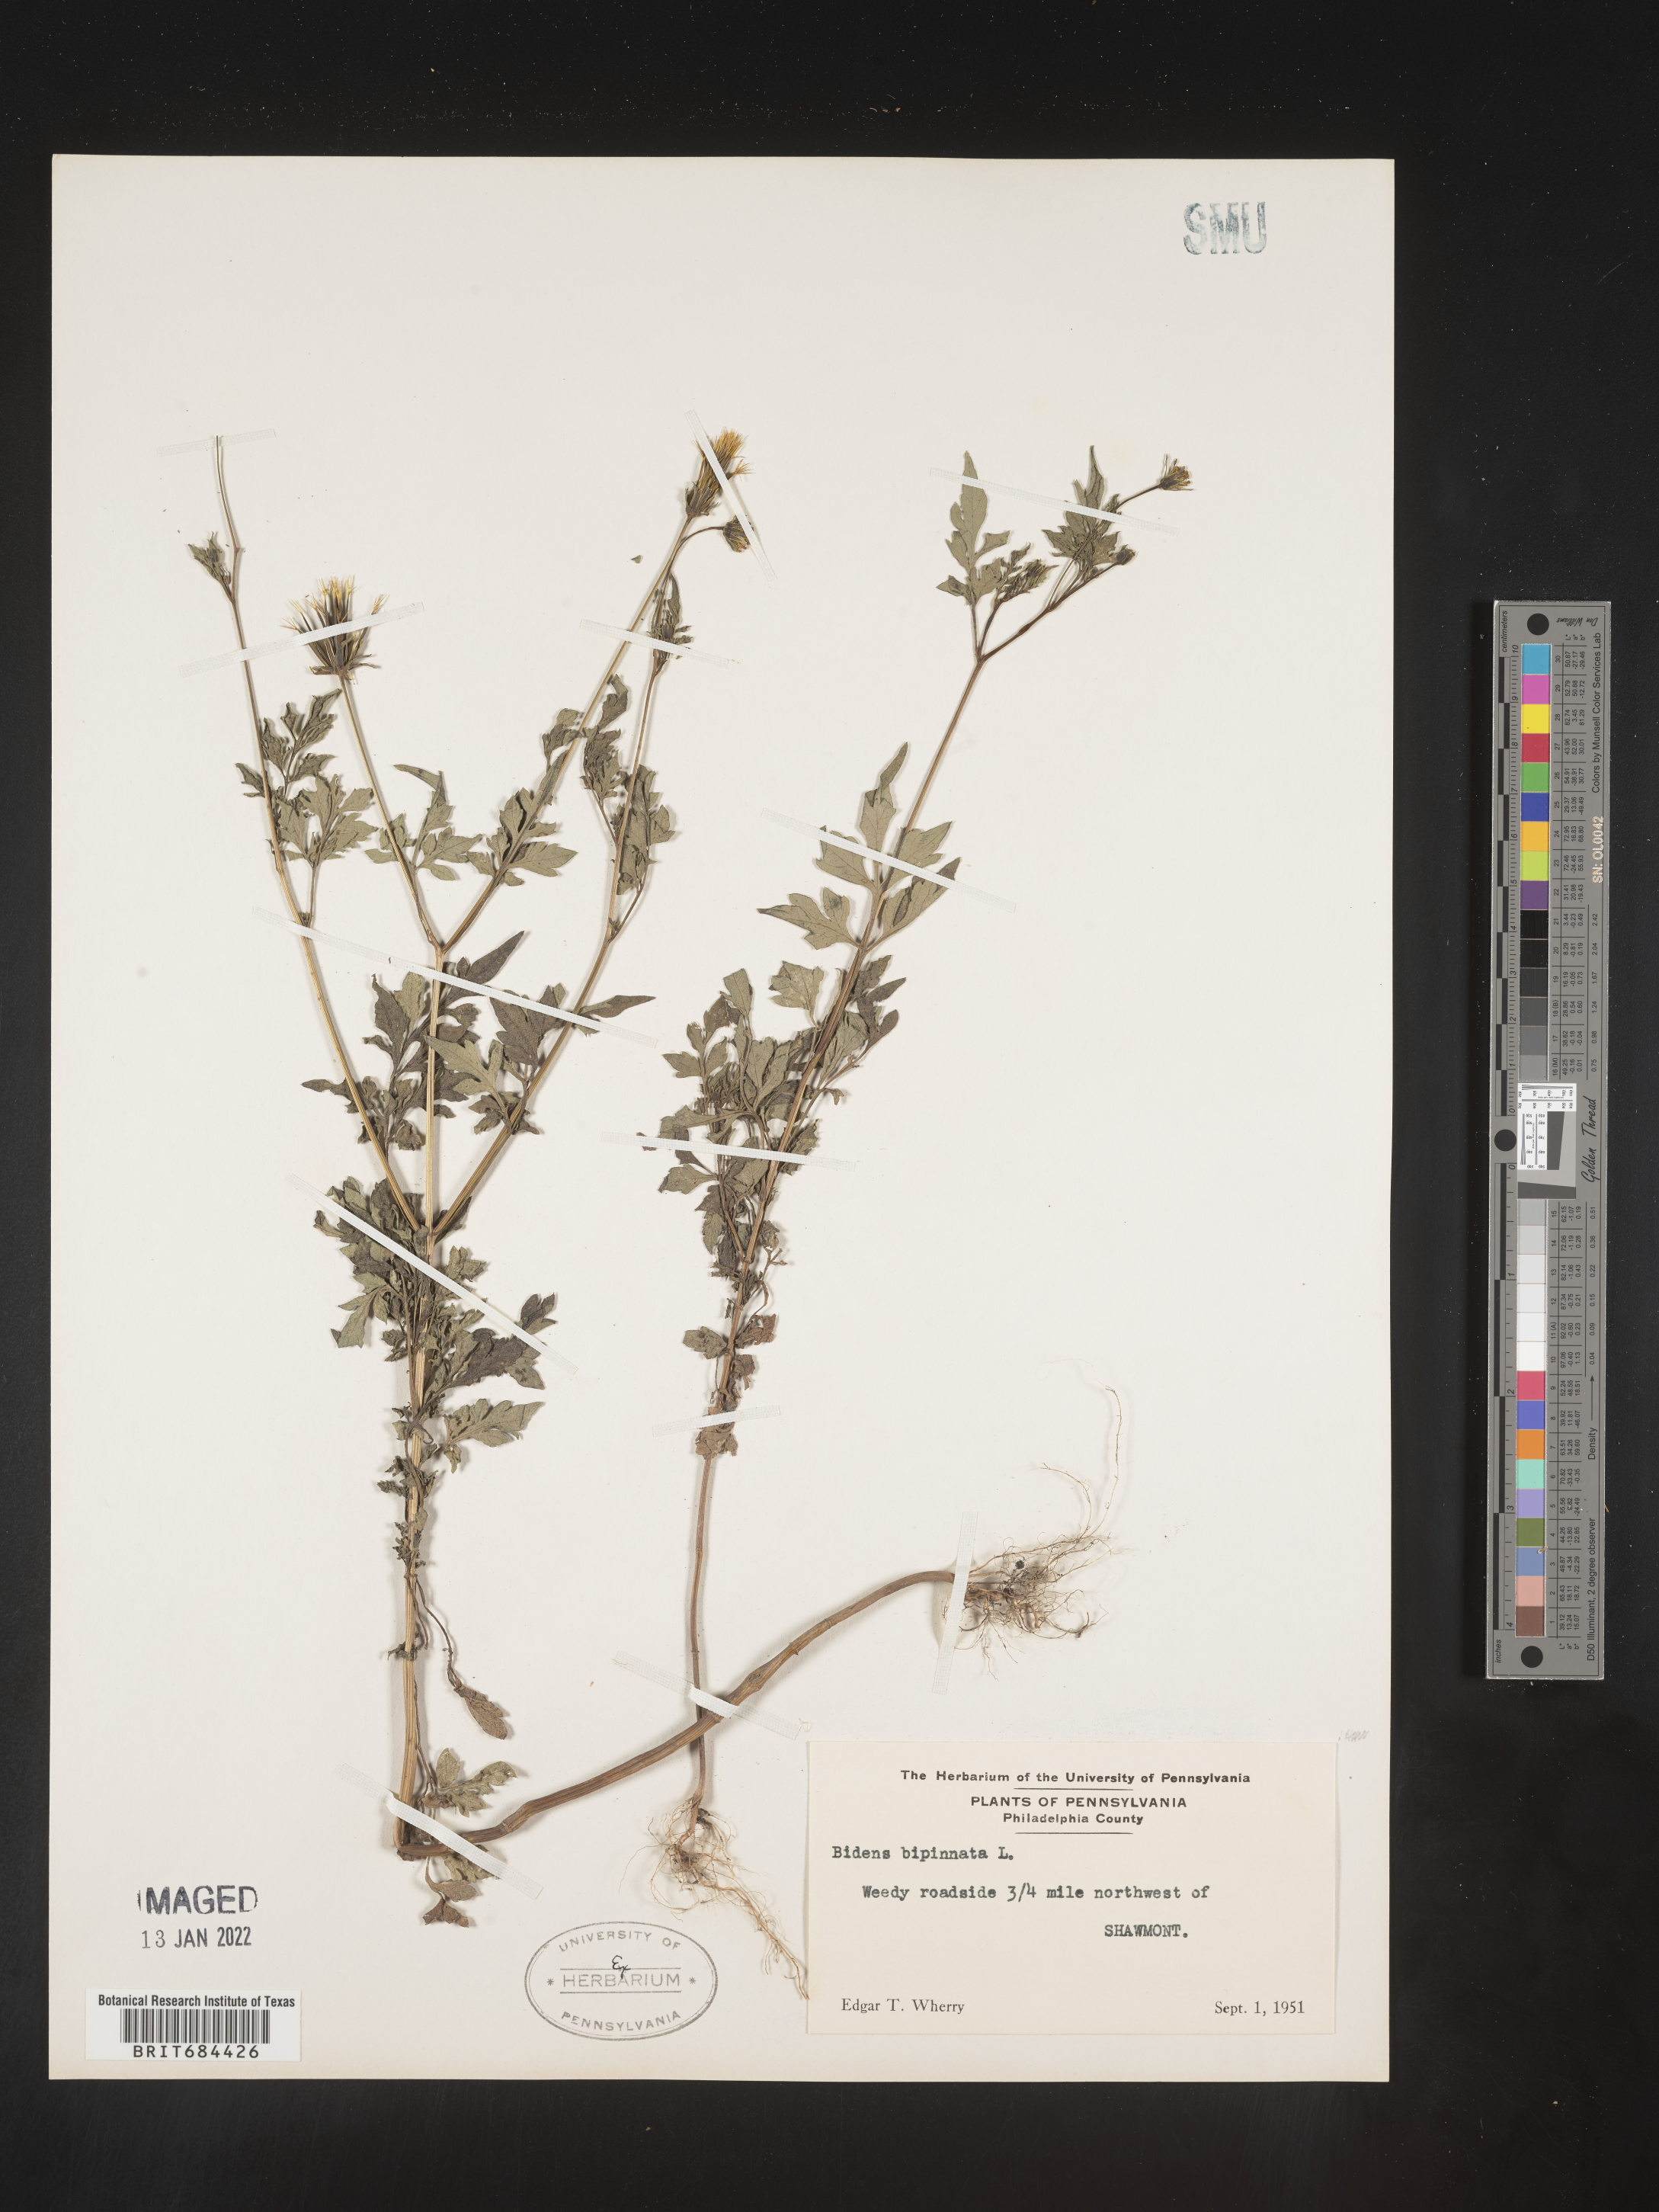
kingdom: Plantae
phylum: Tracheophyta
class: Magnoliopsida
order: Asterales
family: Asteraceae
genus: Bidens
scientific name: Bidens bipinnata
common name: Spanish-needles
